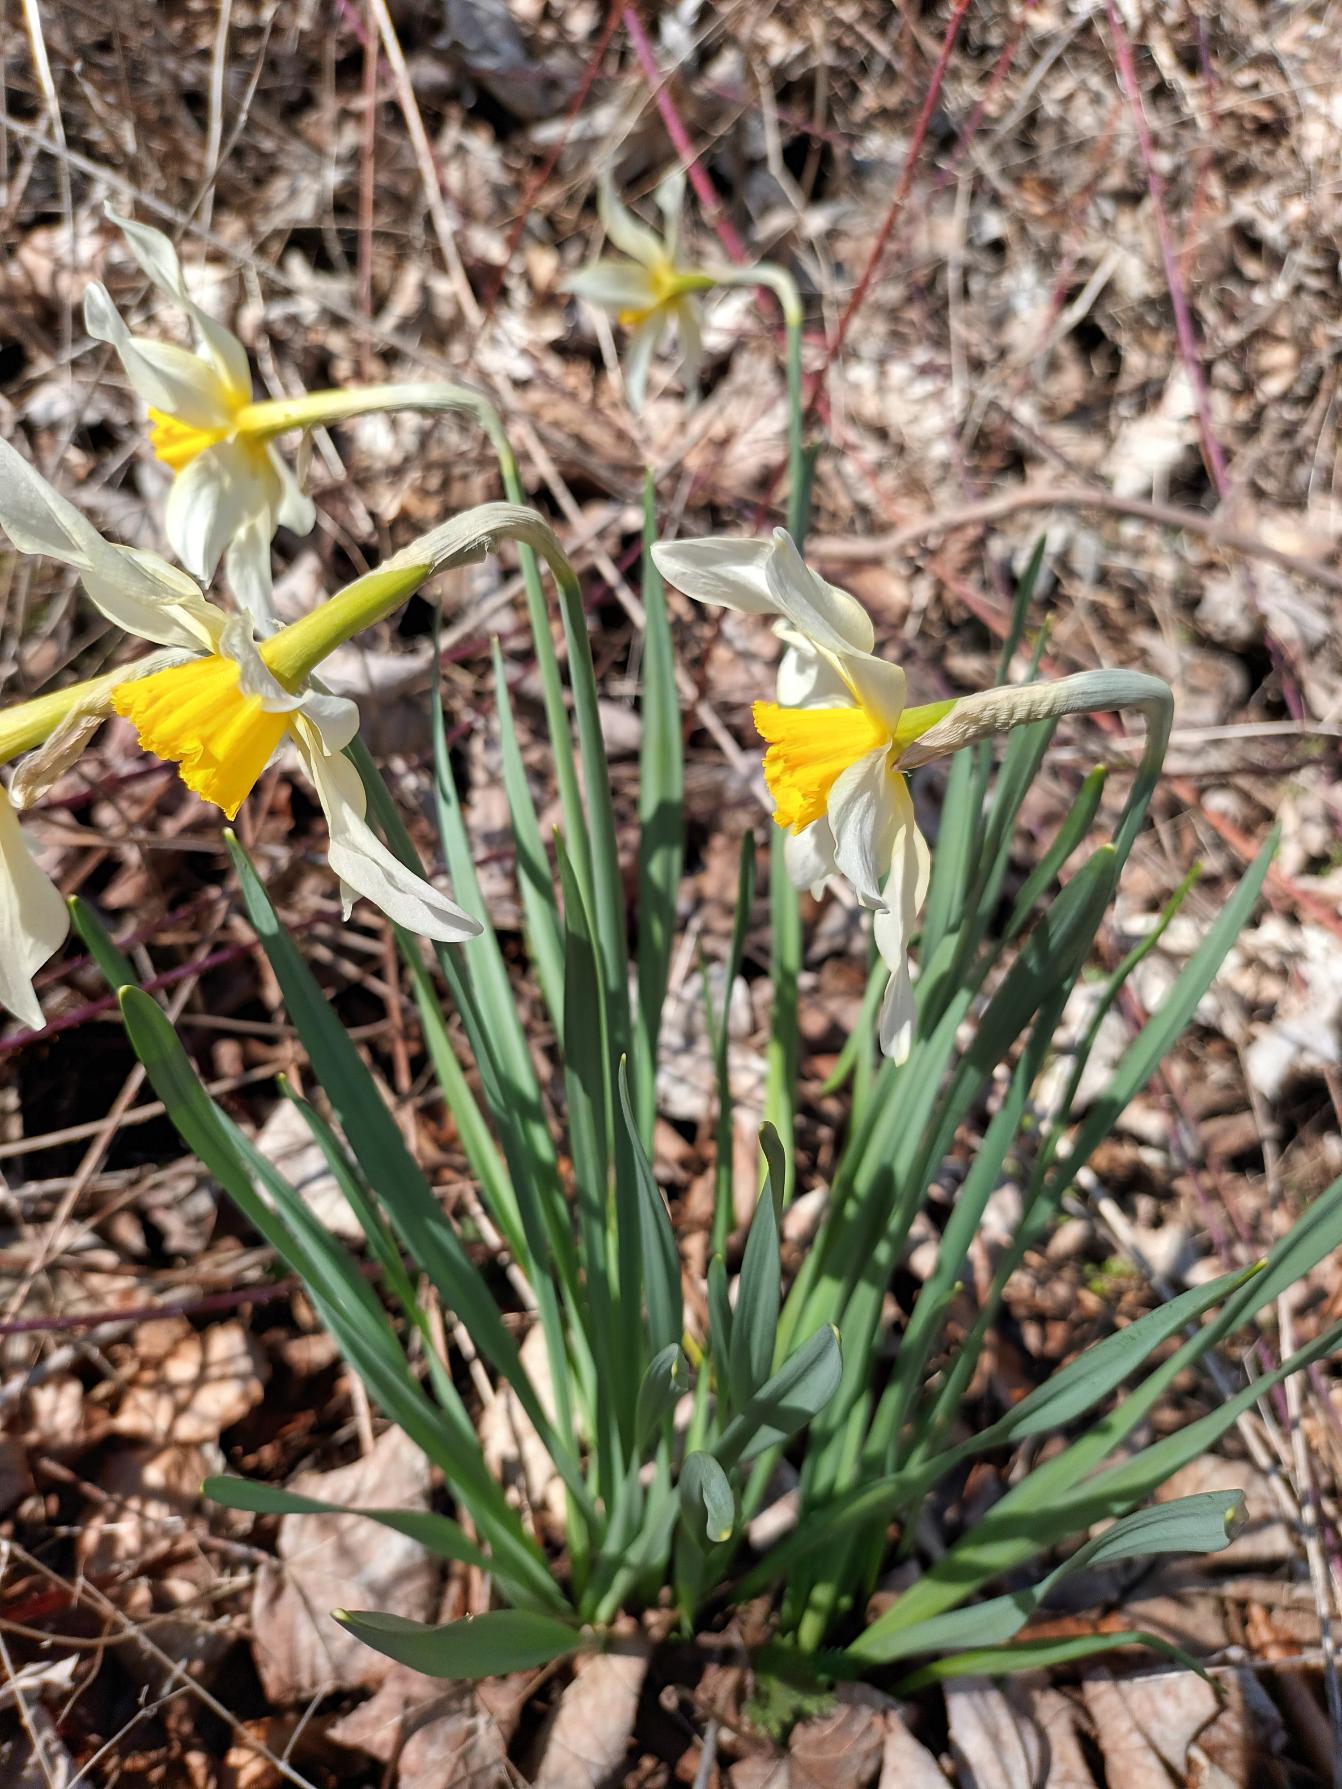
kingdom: Plantae
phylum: Tracheophyta
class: Liliopsida
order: Asparagales
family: Amaryllidaceae
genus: Narcissus
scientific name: Narcissus boutignyanus
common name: Svanehalsnarcis
